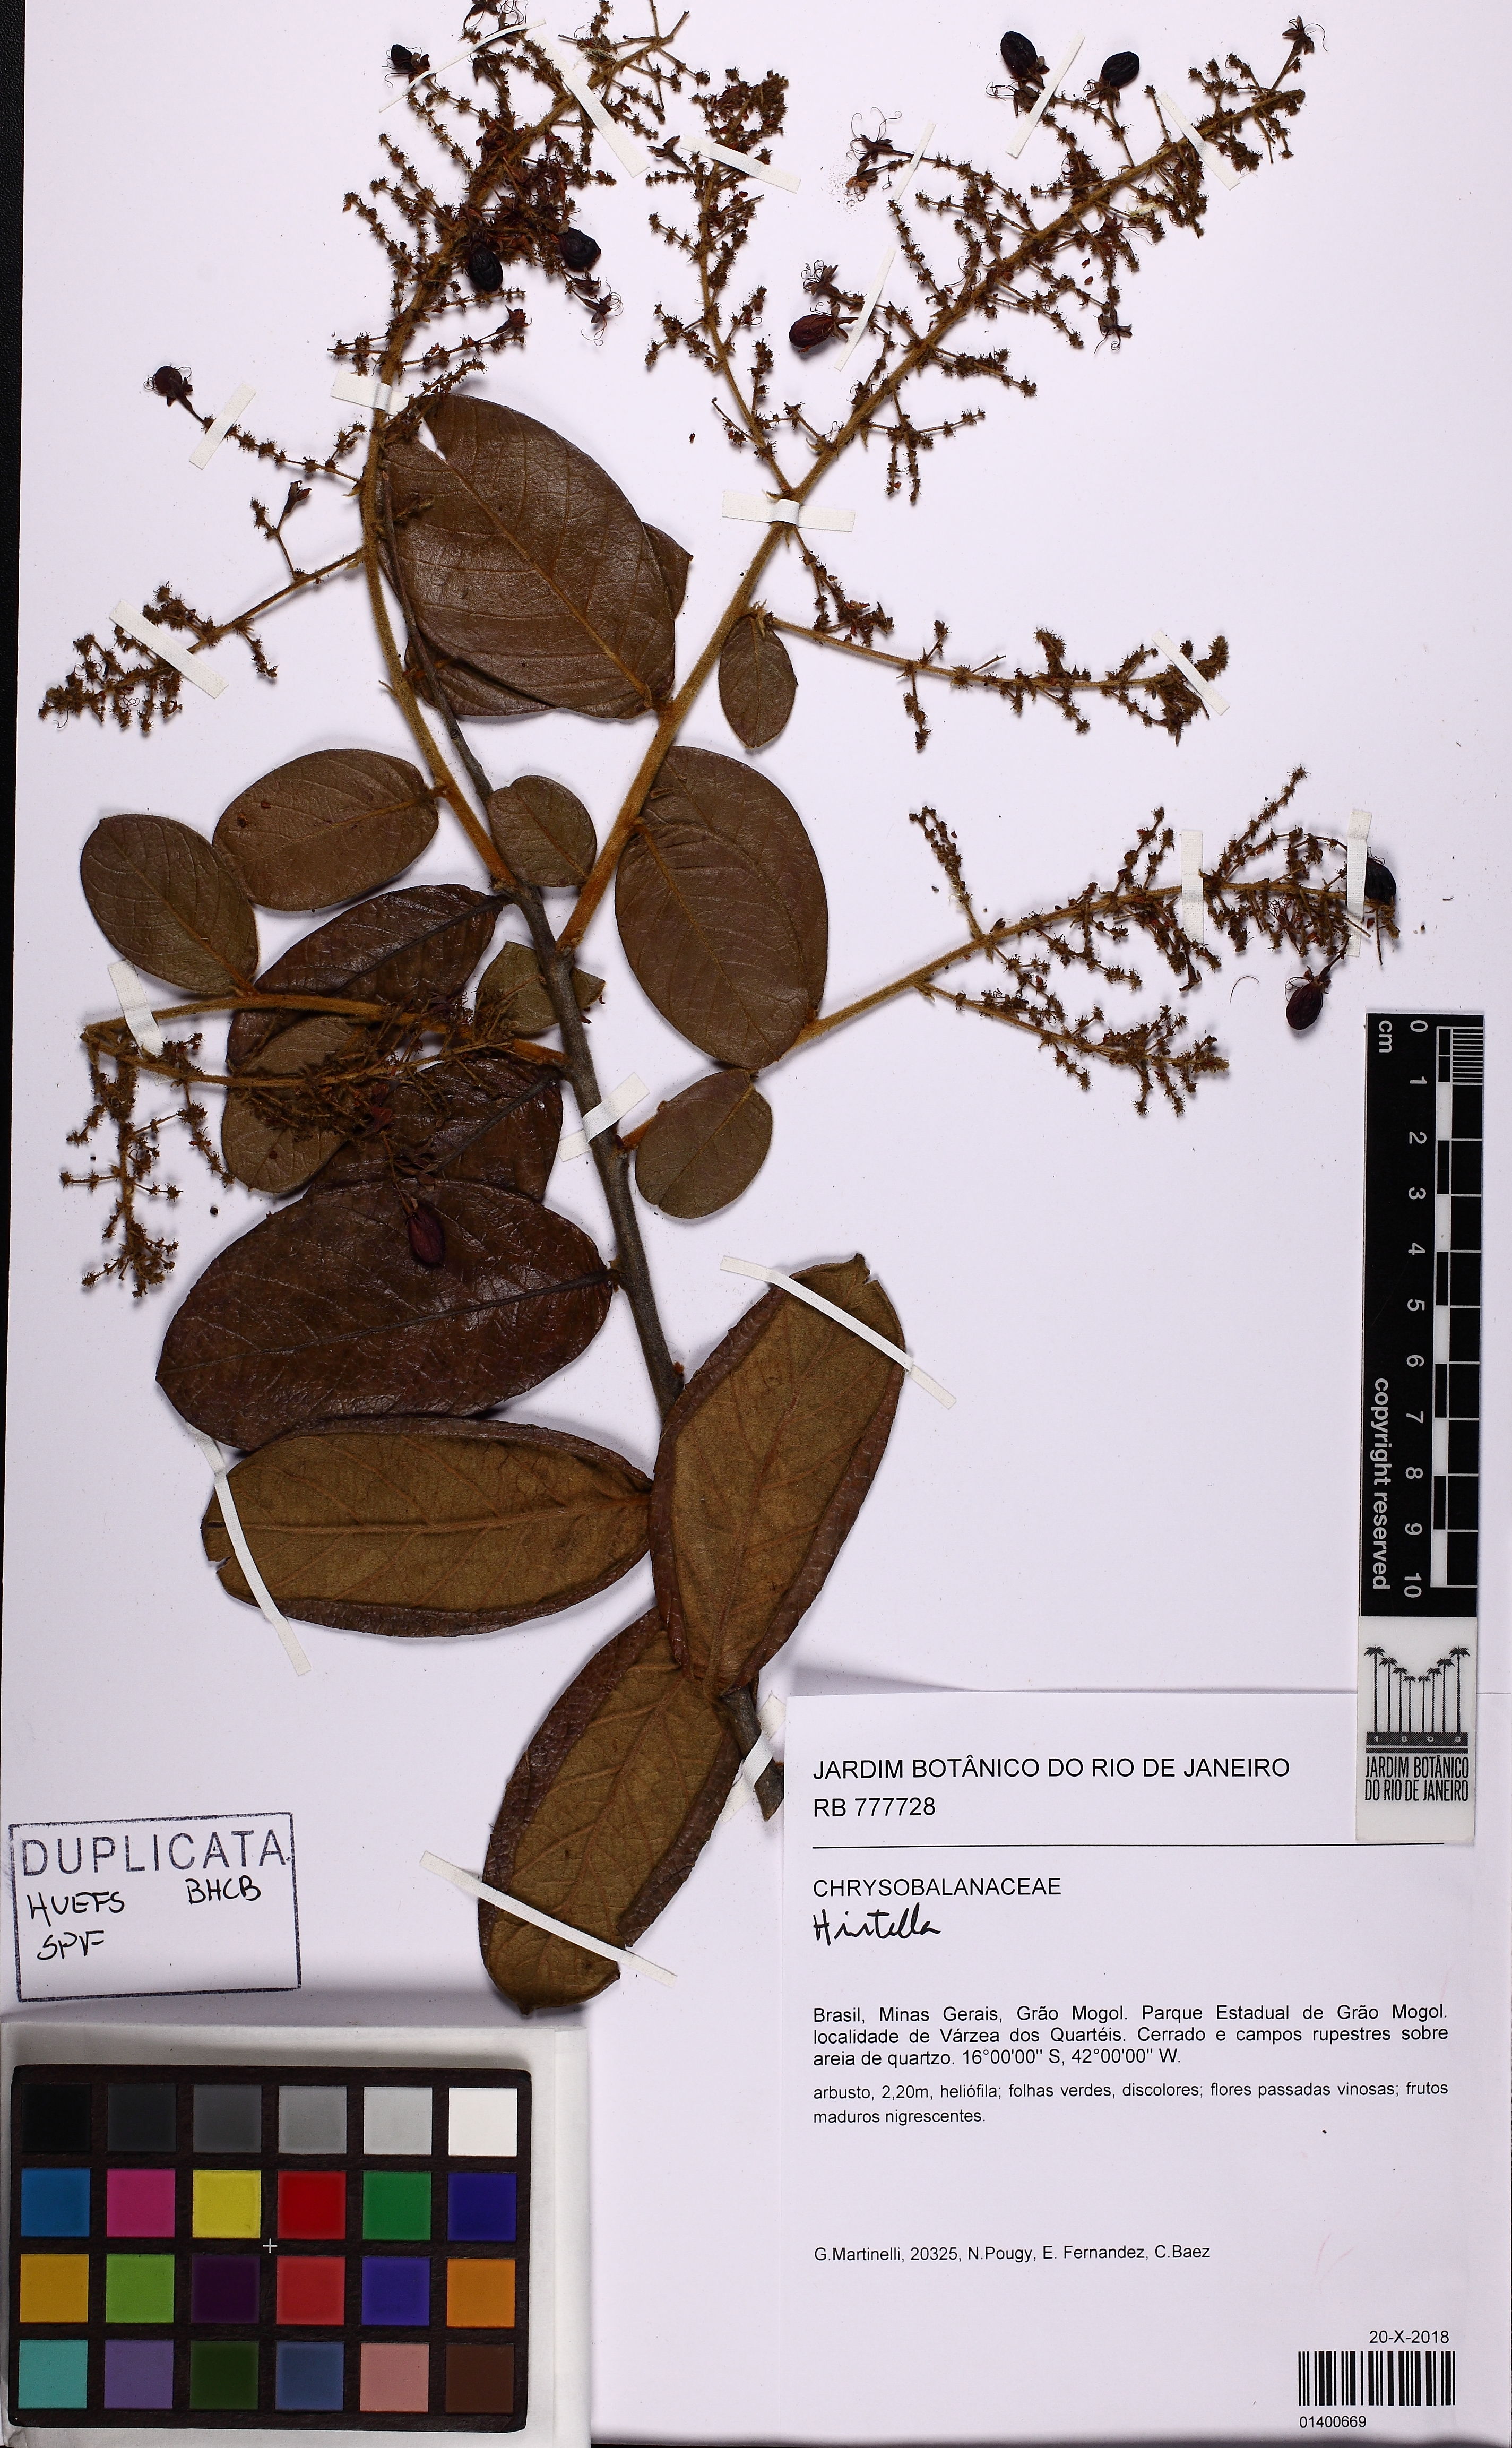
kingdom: Plantae
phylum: Tracheophyta
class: Magnoliopsida
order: Malpighiales
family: Chrysobalanaceae
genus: Hirtella
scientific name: Hirtella
